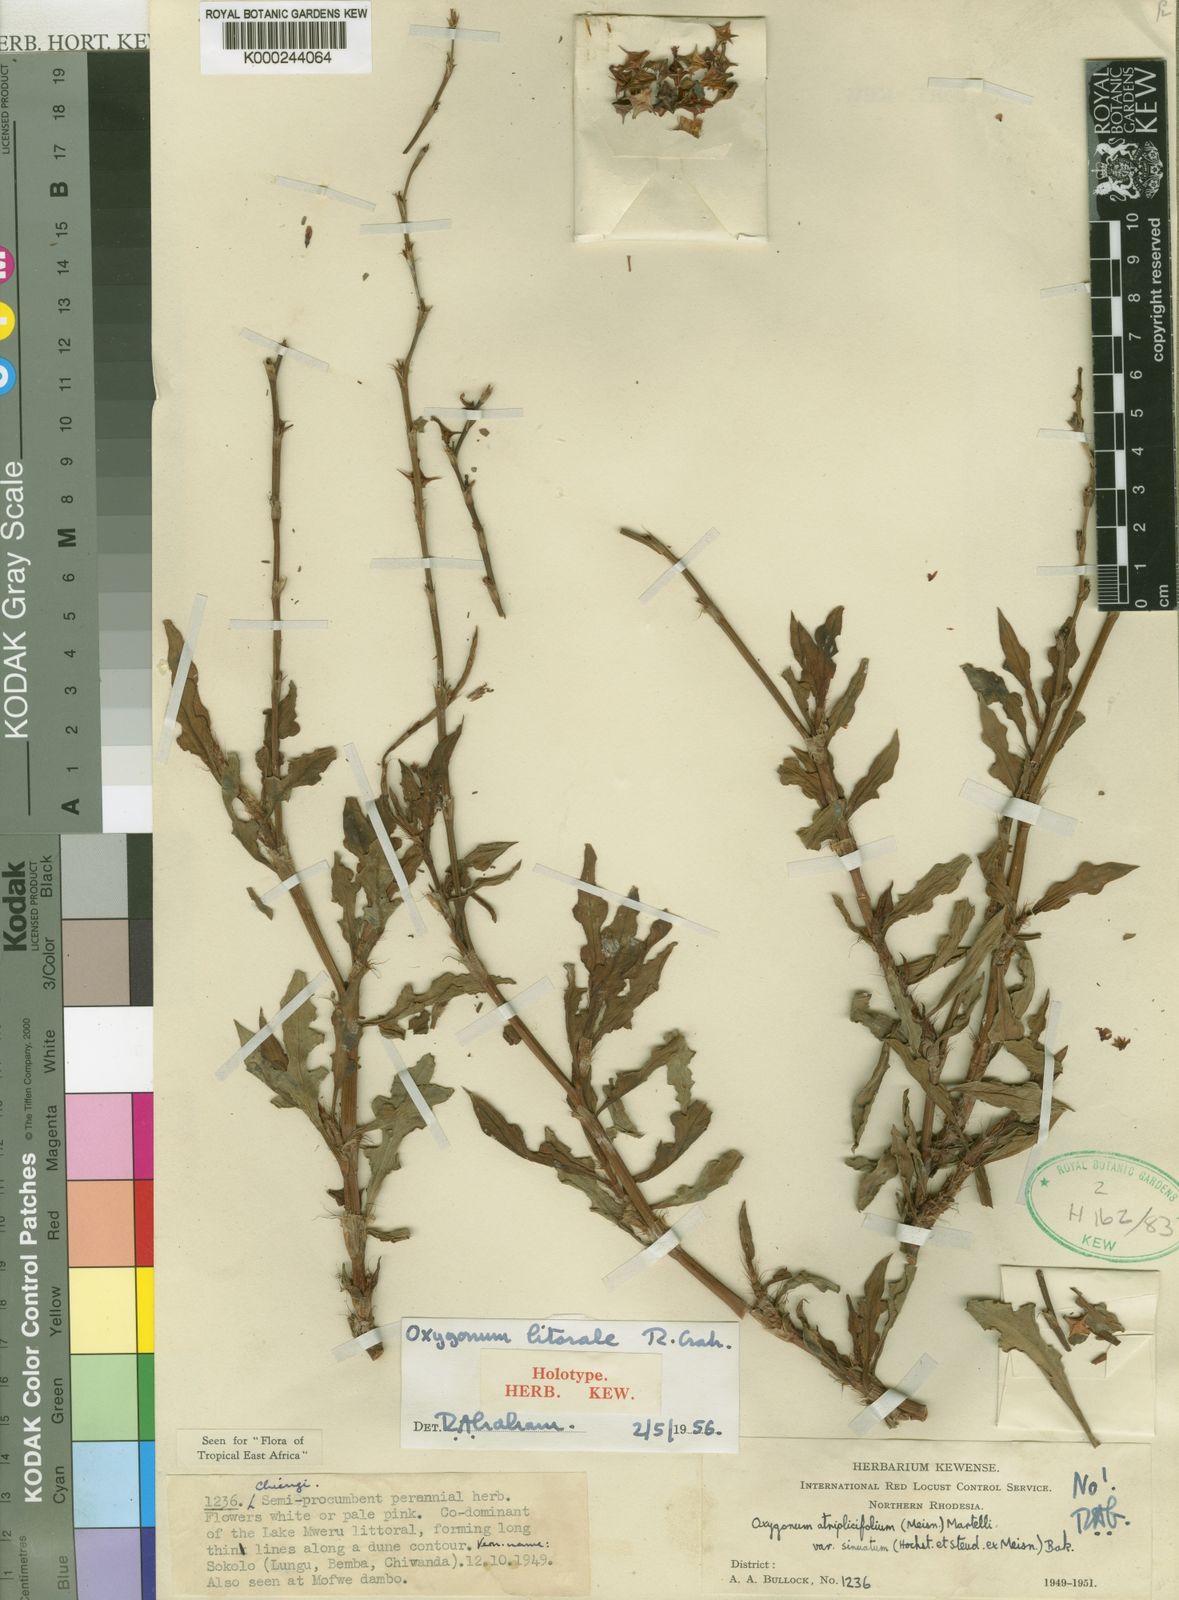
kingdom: Plantae
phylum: Tracheophyta
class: Magnoliopsida
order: Caryophyllales
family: Polygonaceae
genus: Oxygonum
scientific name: Oxygonum litorale
